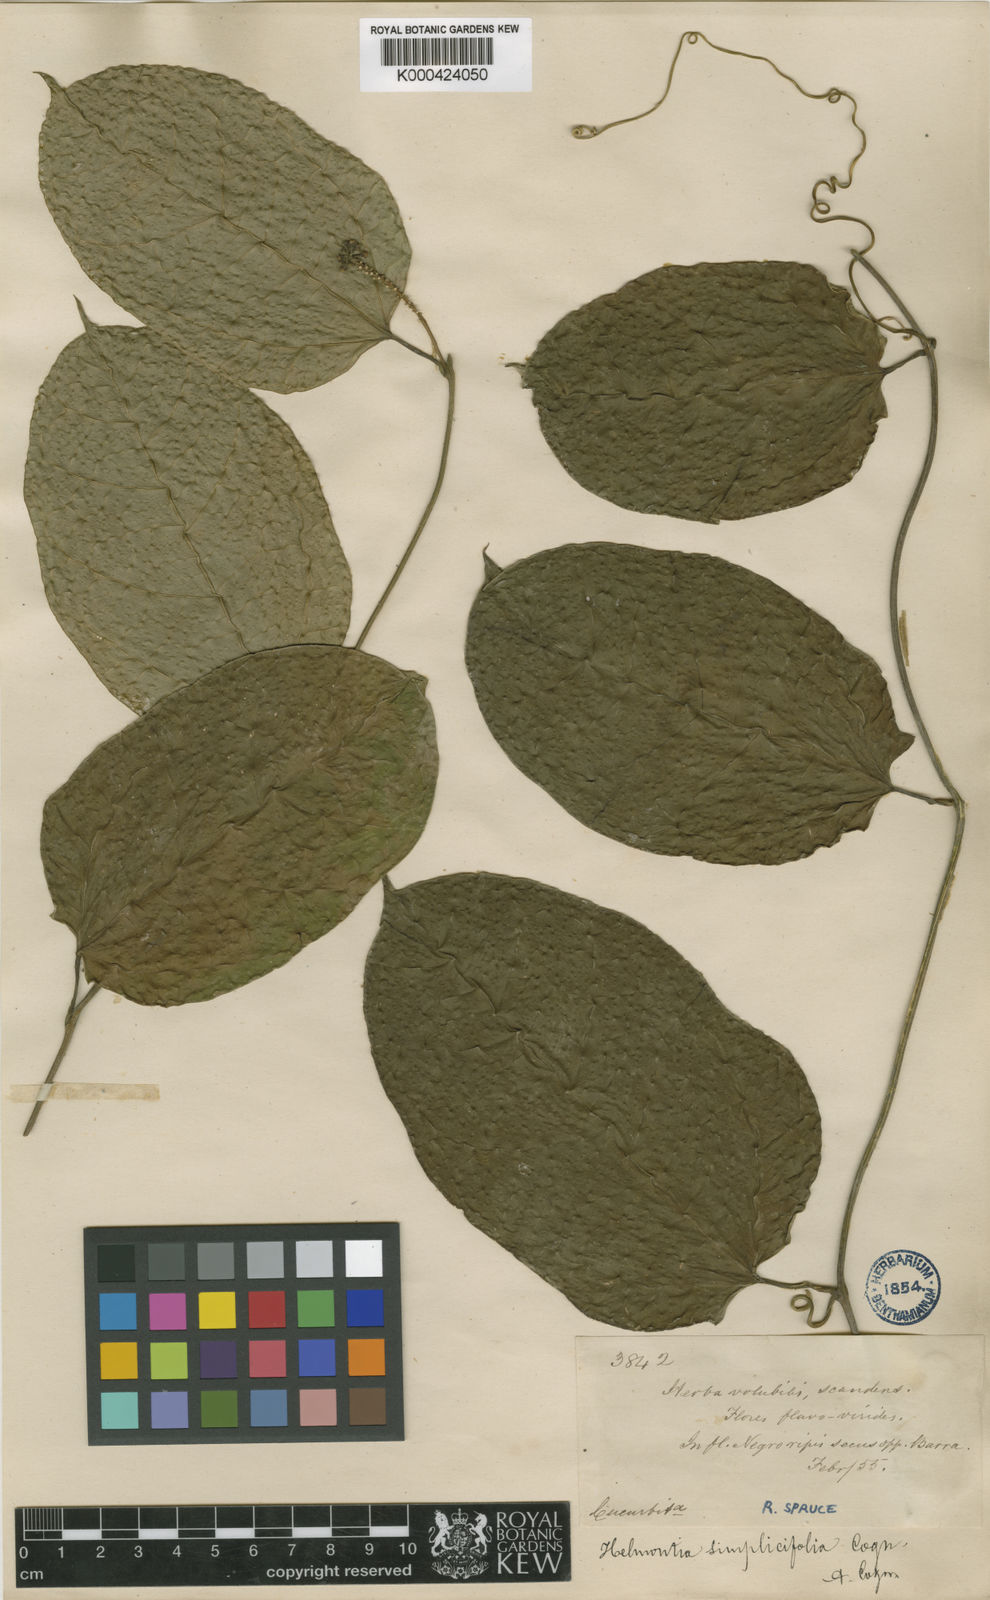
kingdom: Plantae
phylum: Tracheophyta
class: Magnoliopsida
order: Cucurbitales
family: Cucurbitaceae
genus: Helmontia
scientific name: Helmontia leptantha
